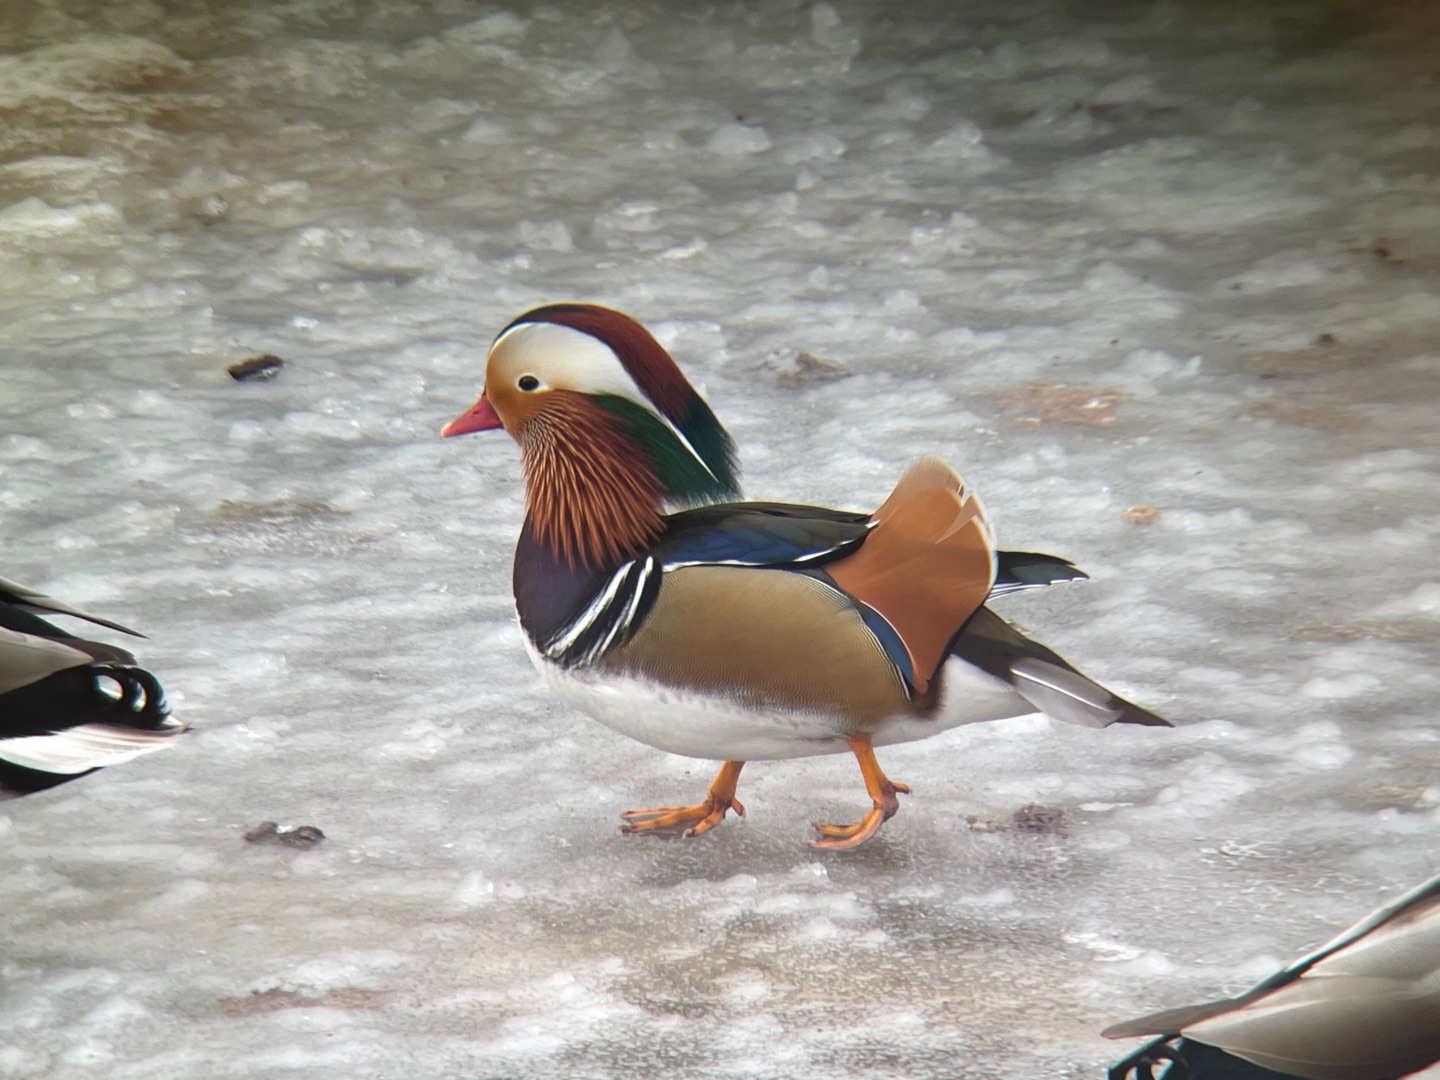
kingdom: Animalia
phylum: Chordata
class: Aves
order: Anseriformes
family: Anatidae
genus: Aix
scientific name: Aix galericulata
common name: Mandarinand
